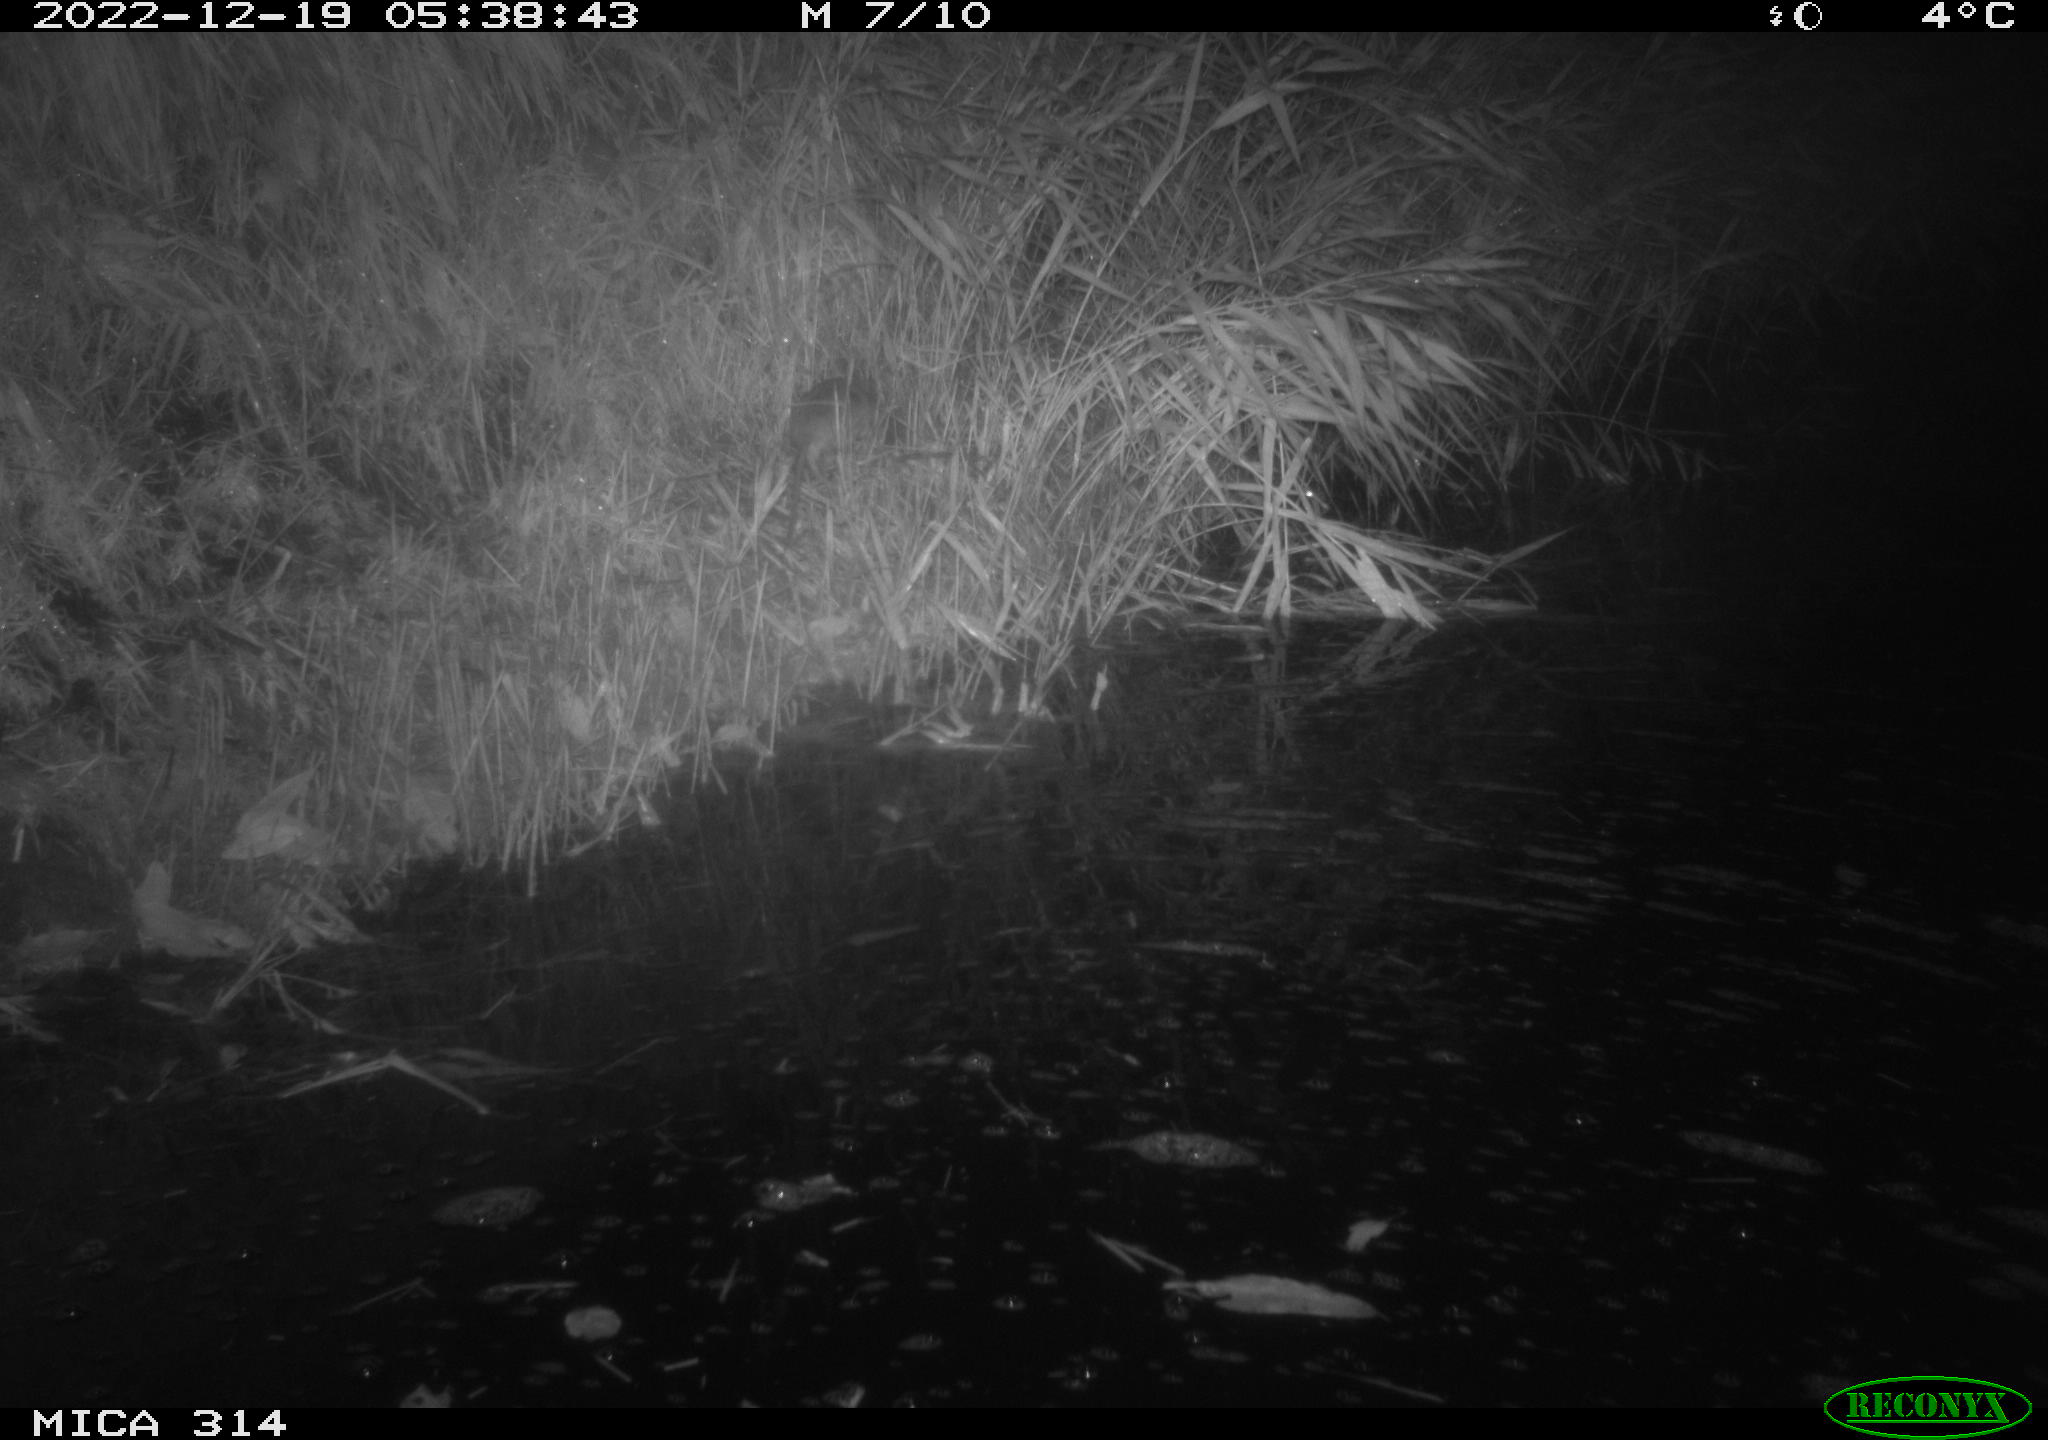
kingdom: Animalia
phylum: Chordata
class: Mammalia
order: Rodentia
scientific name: Rodentia
